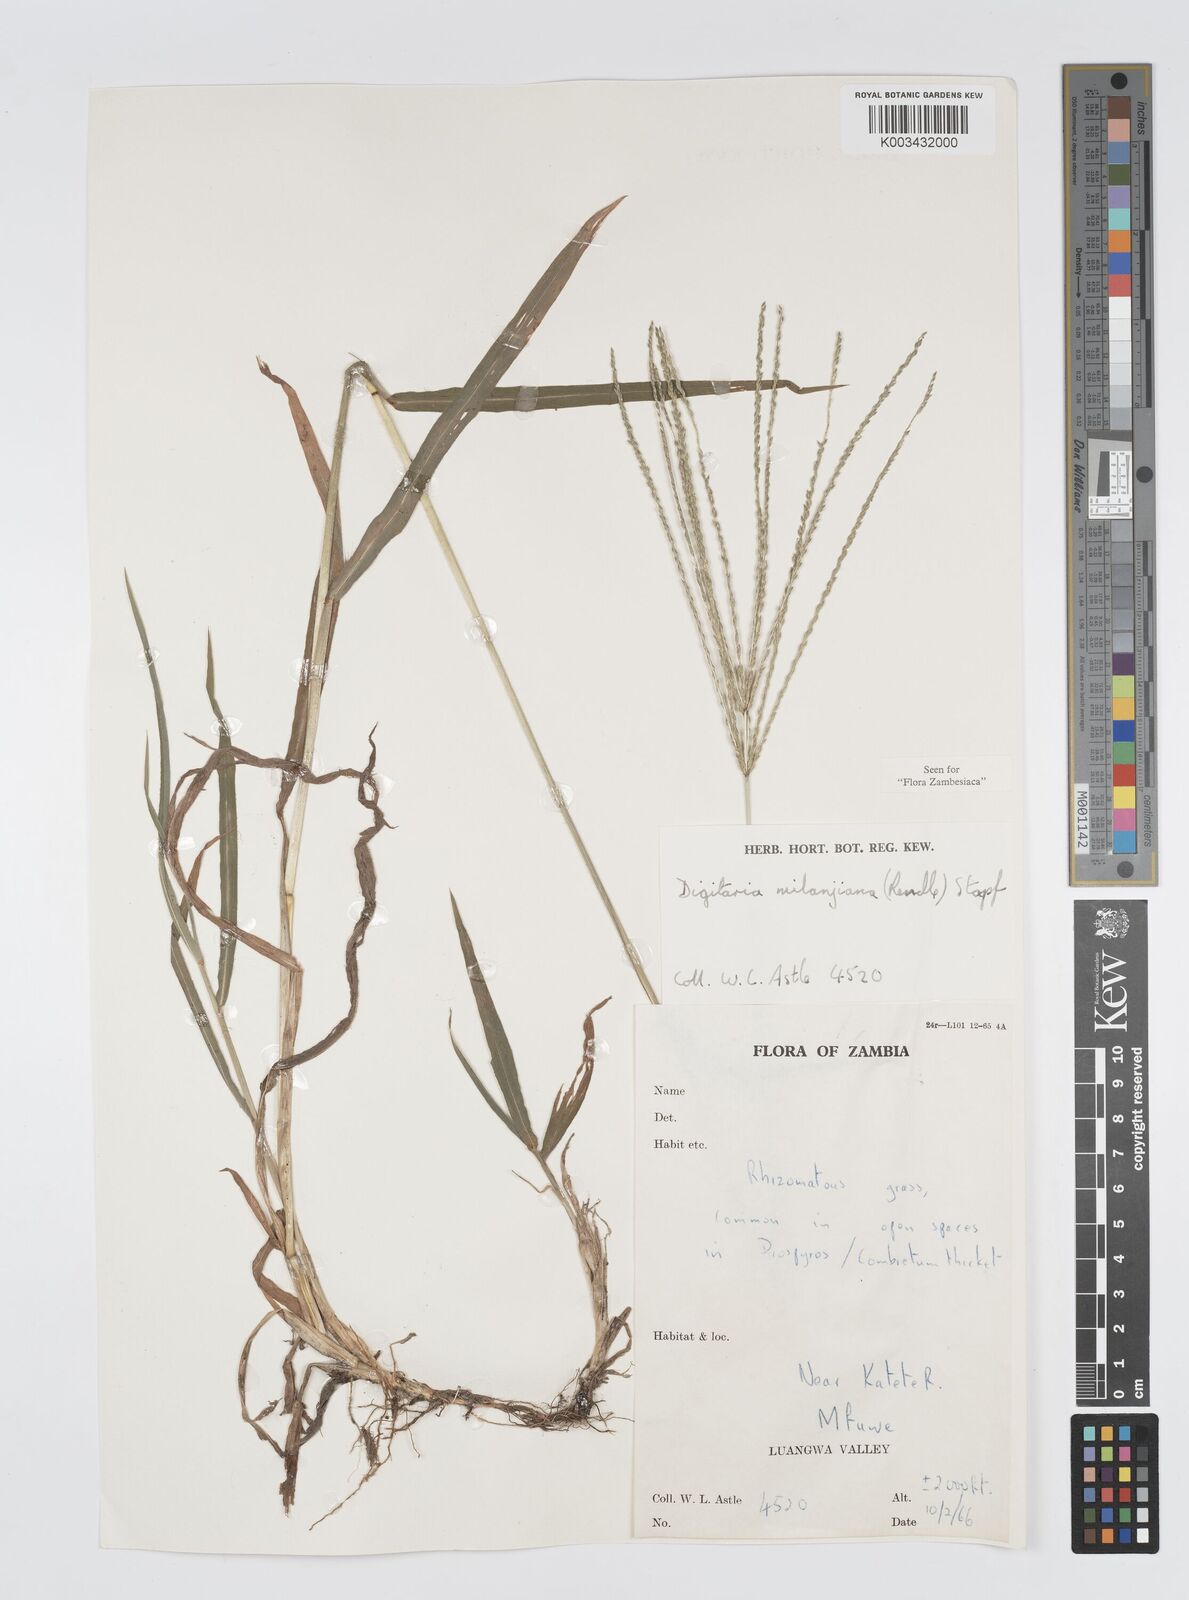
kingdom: Plantae
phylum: Tracheophyta
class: Liliopsida
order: Poales
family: Poaceae
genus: Digitaria
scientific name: Digitaria milanjiana
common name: Madagascar crabgrass
